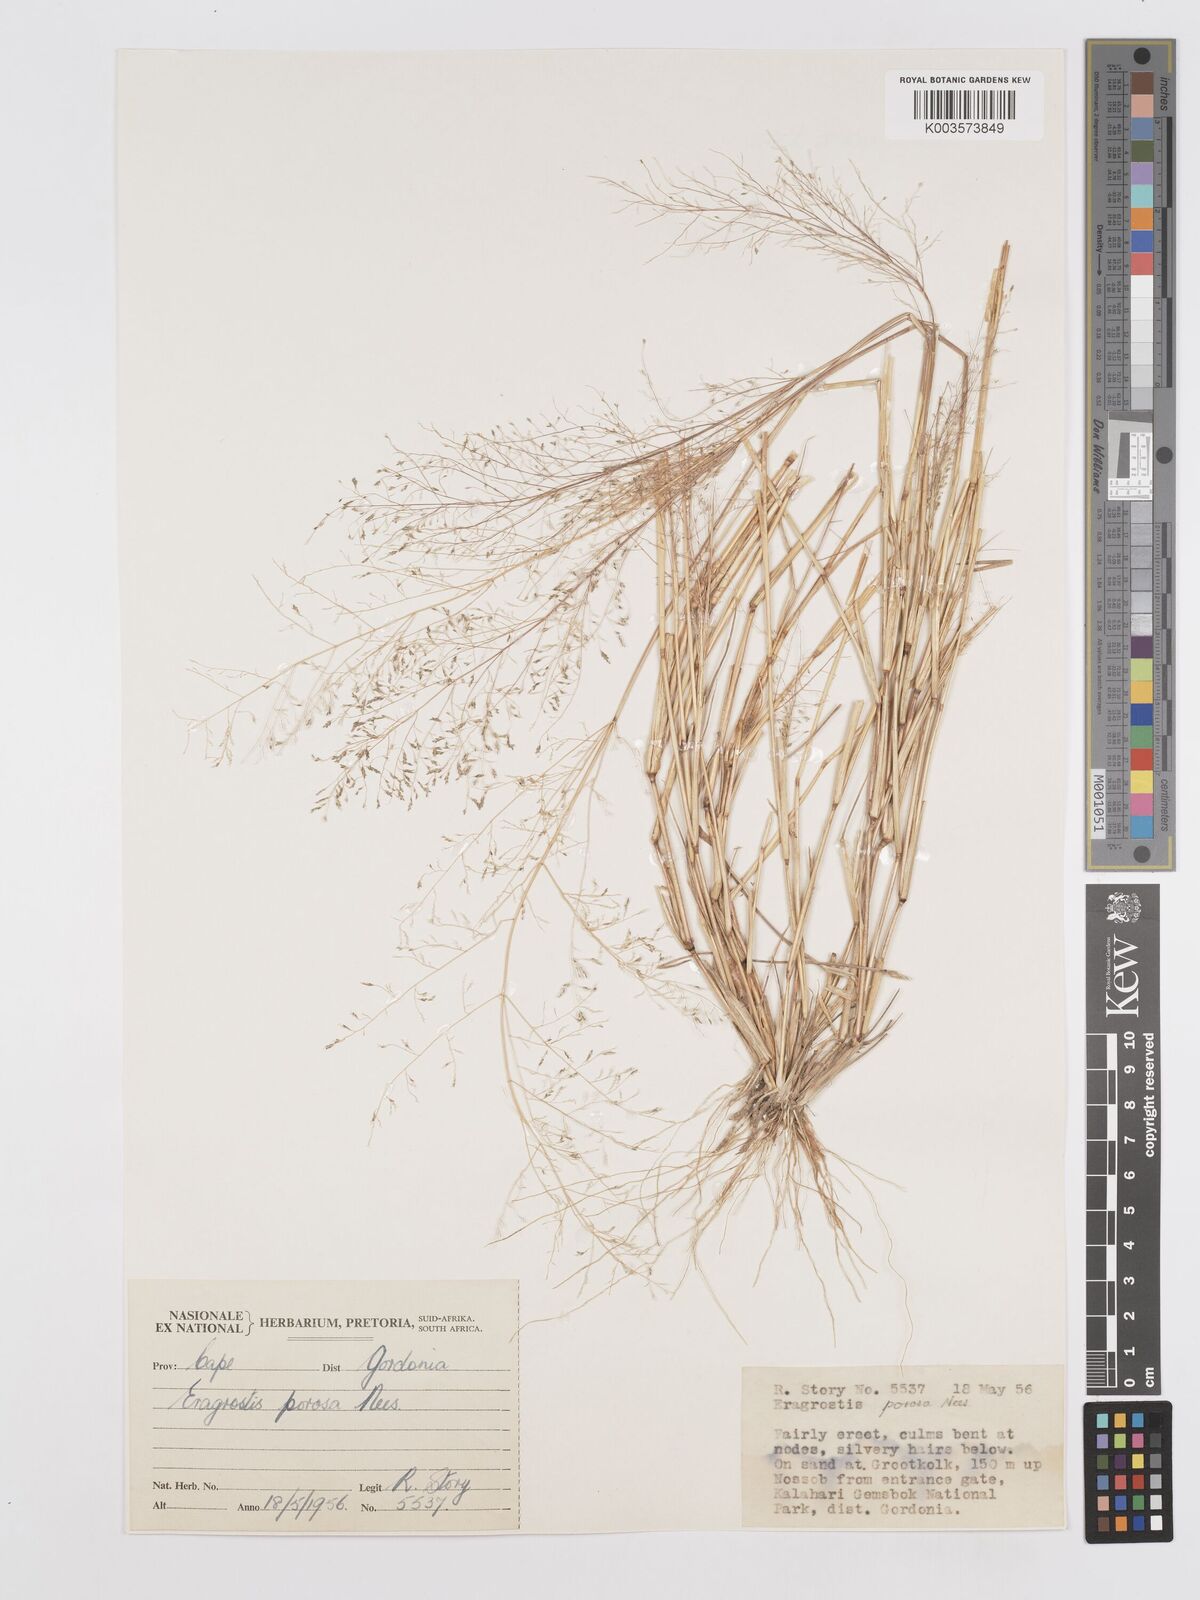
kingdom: Plantae
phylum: Tracheophyta
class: Liliopsida
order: Poales
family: Poaceae
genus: Eragrostis
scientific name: Eragrostis porosa
